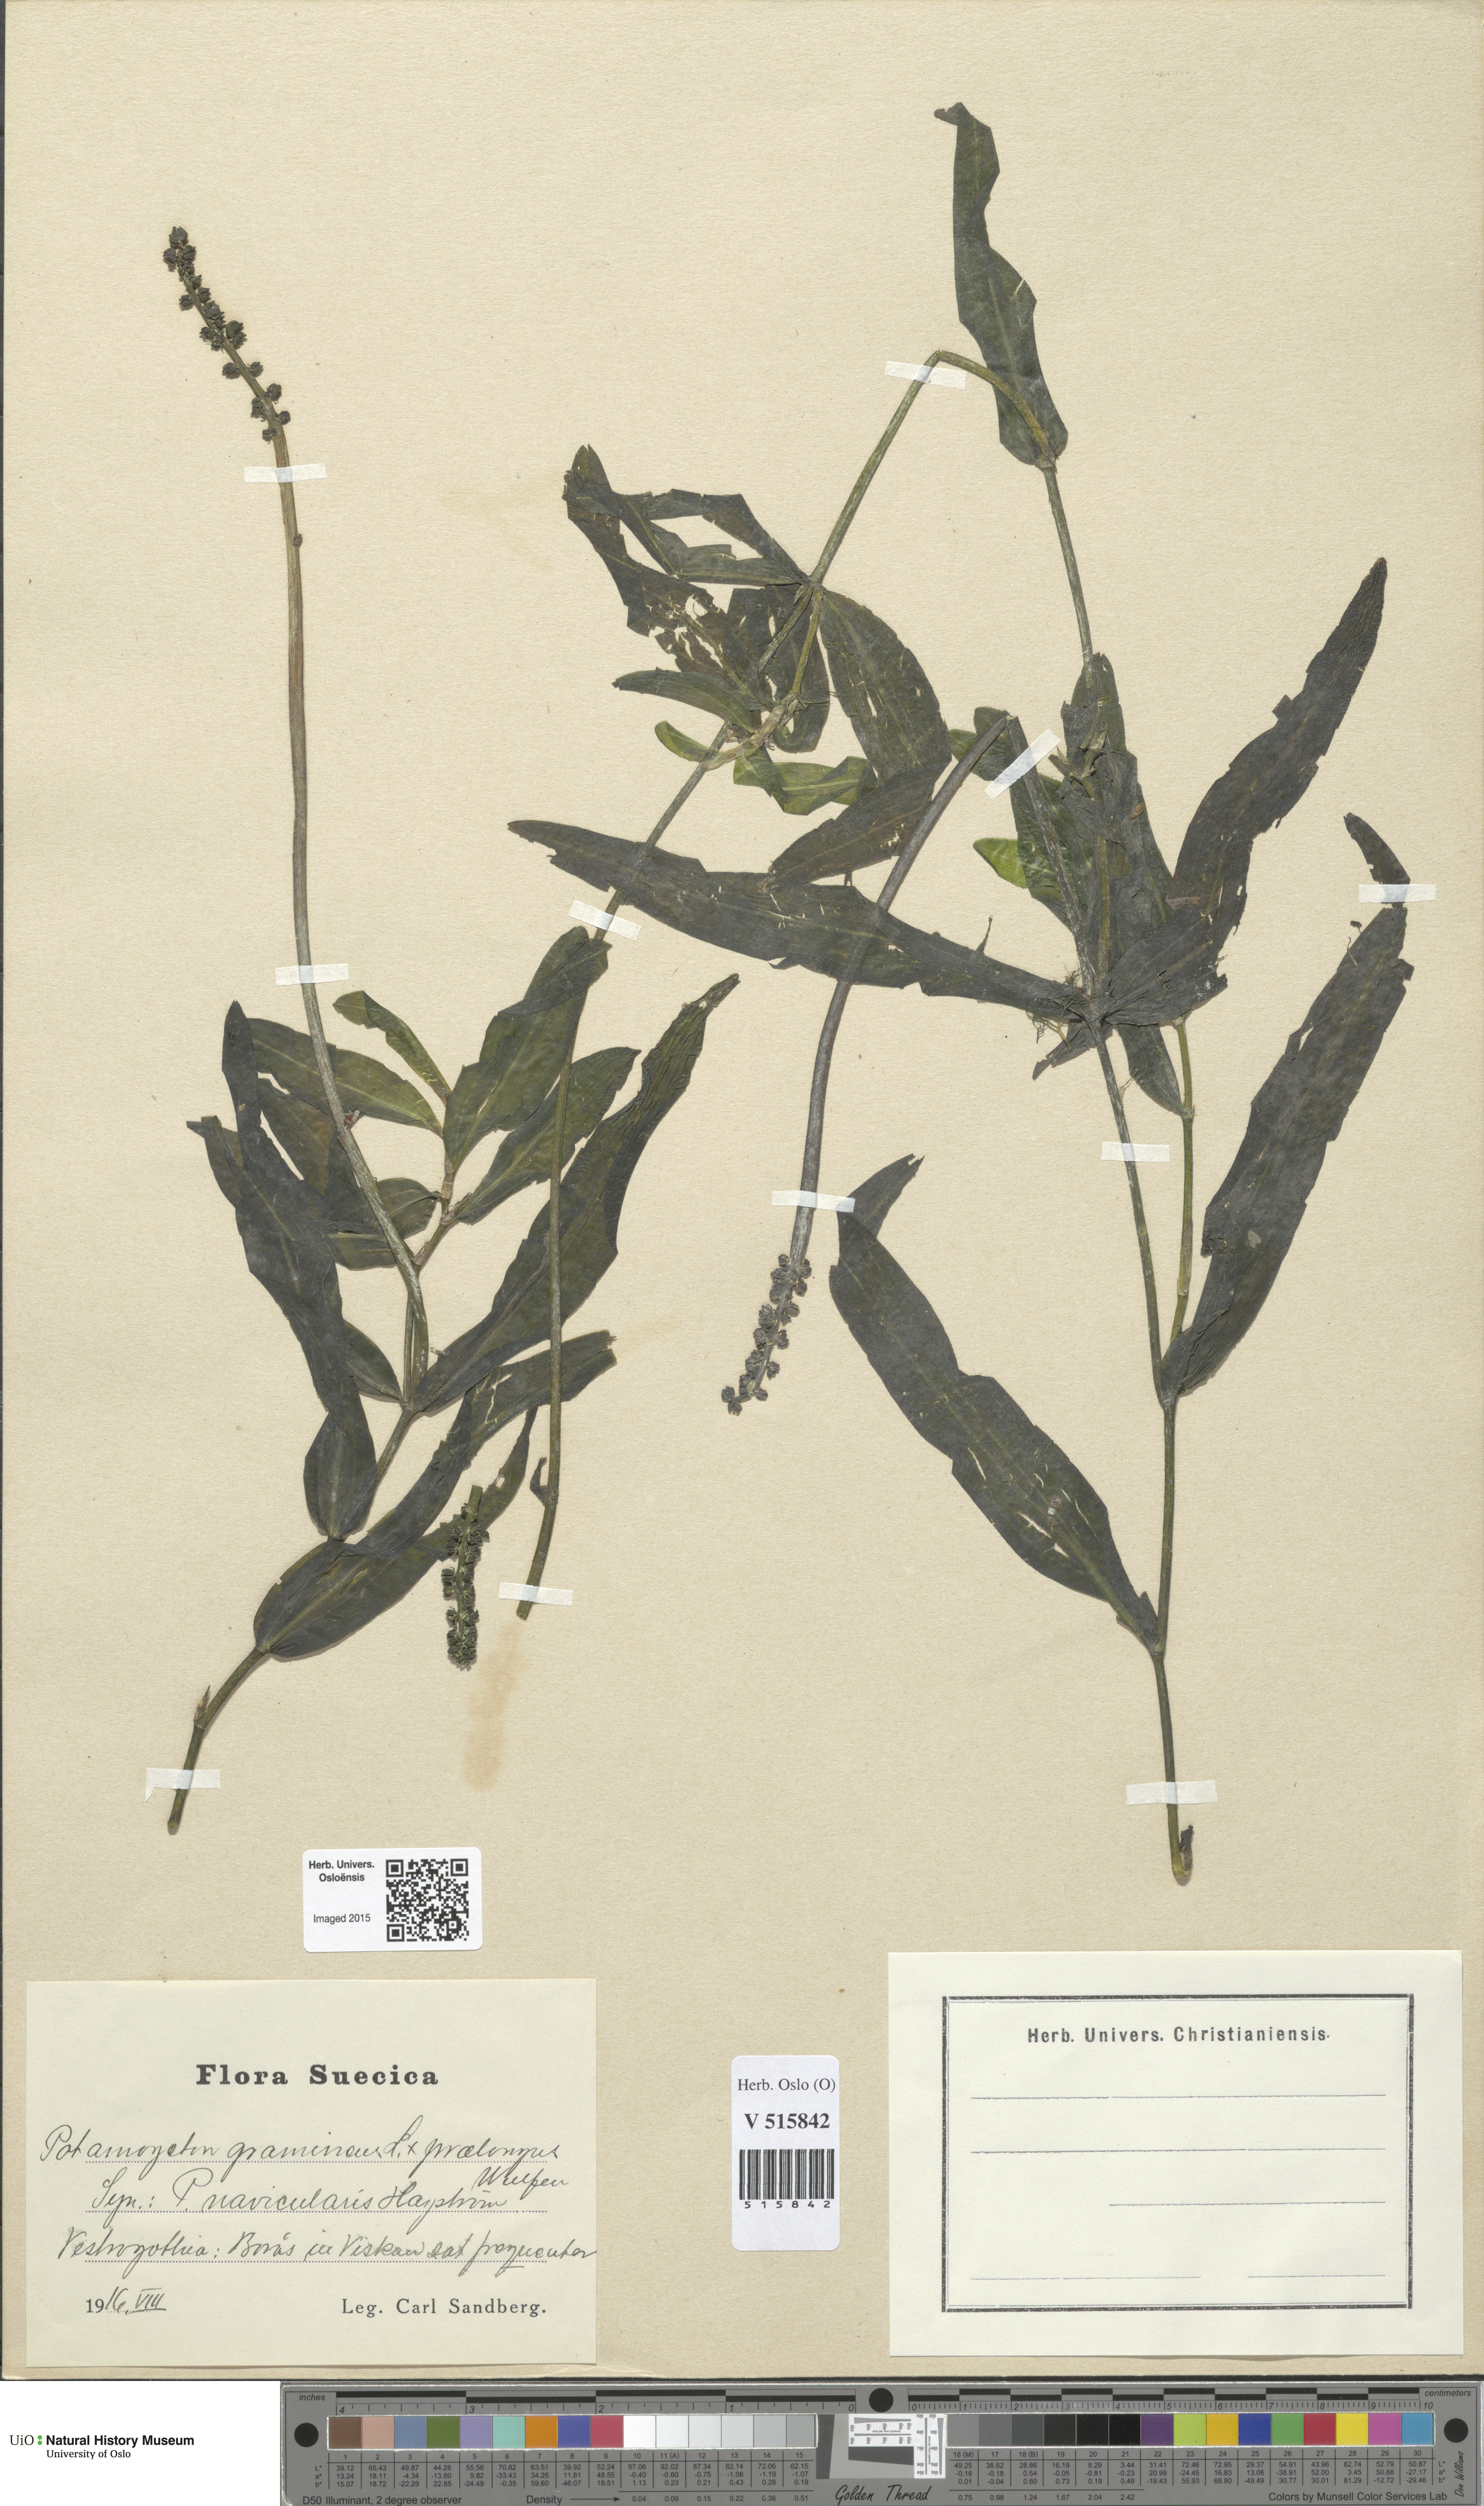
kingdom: Plantae
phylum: Tracheophyta
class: Liliopsida
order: Alismatales
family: Potamogetonaceae
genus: Potamogeton
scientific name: Potamogeton
